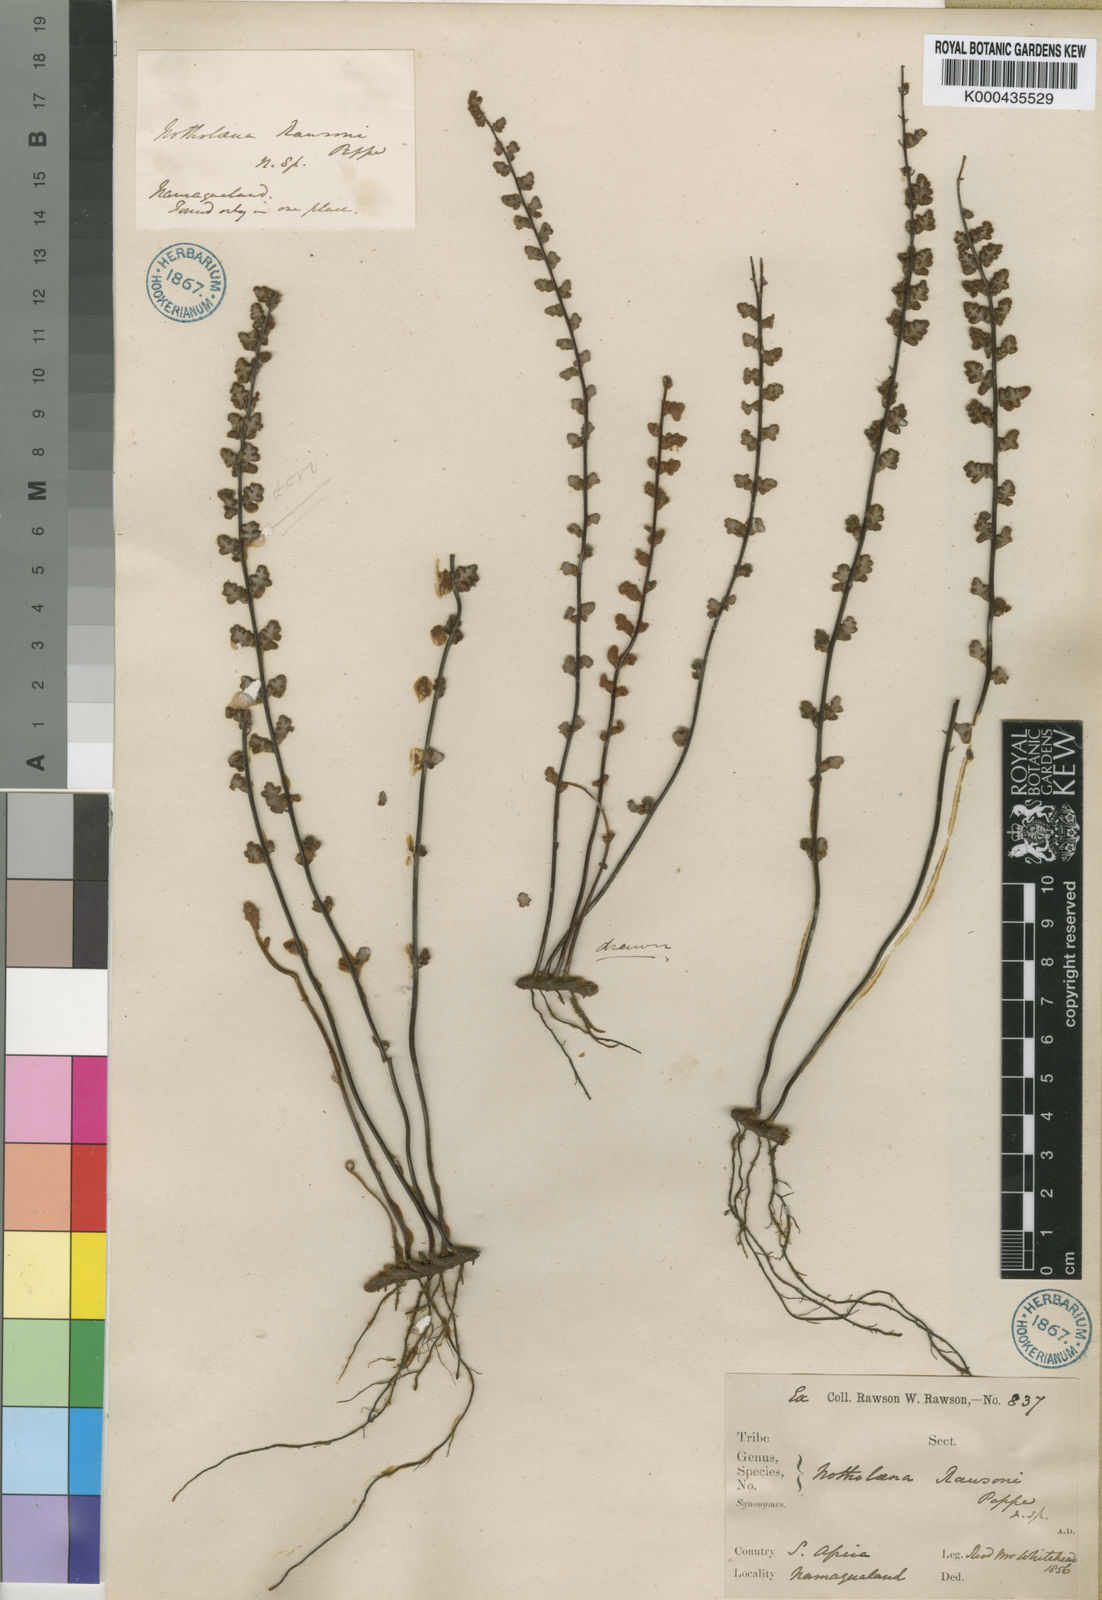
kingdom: Plantae
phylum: Tracheophyta
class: Polypodiopsida
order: Polypodiales
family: Pteridaceae
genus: Myriopteris
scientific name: Myriopteris rawsonii
